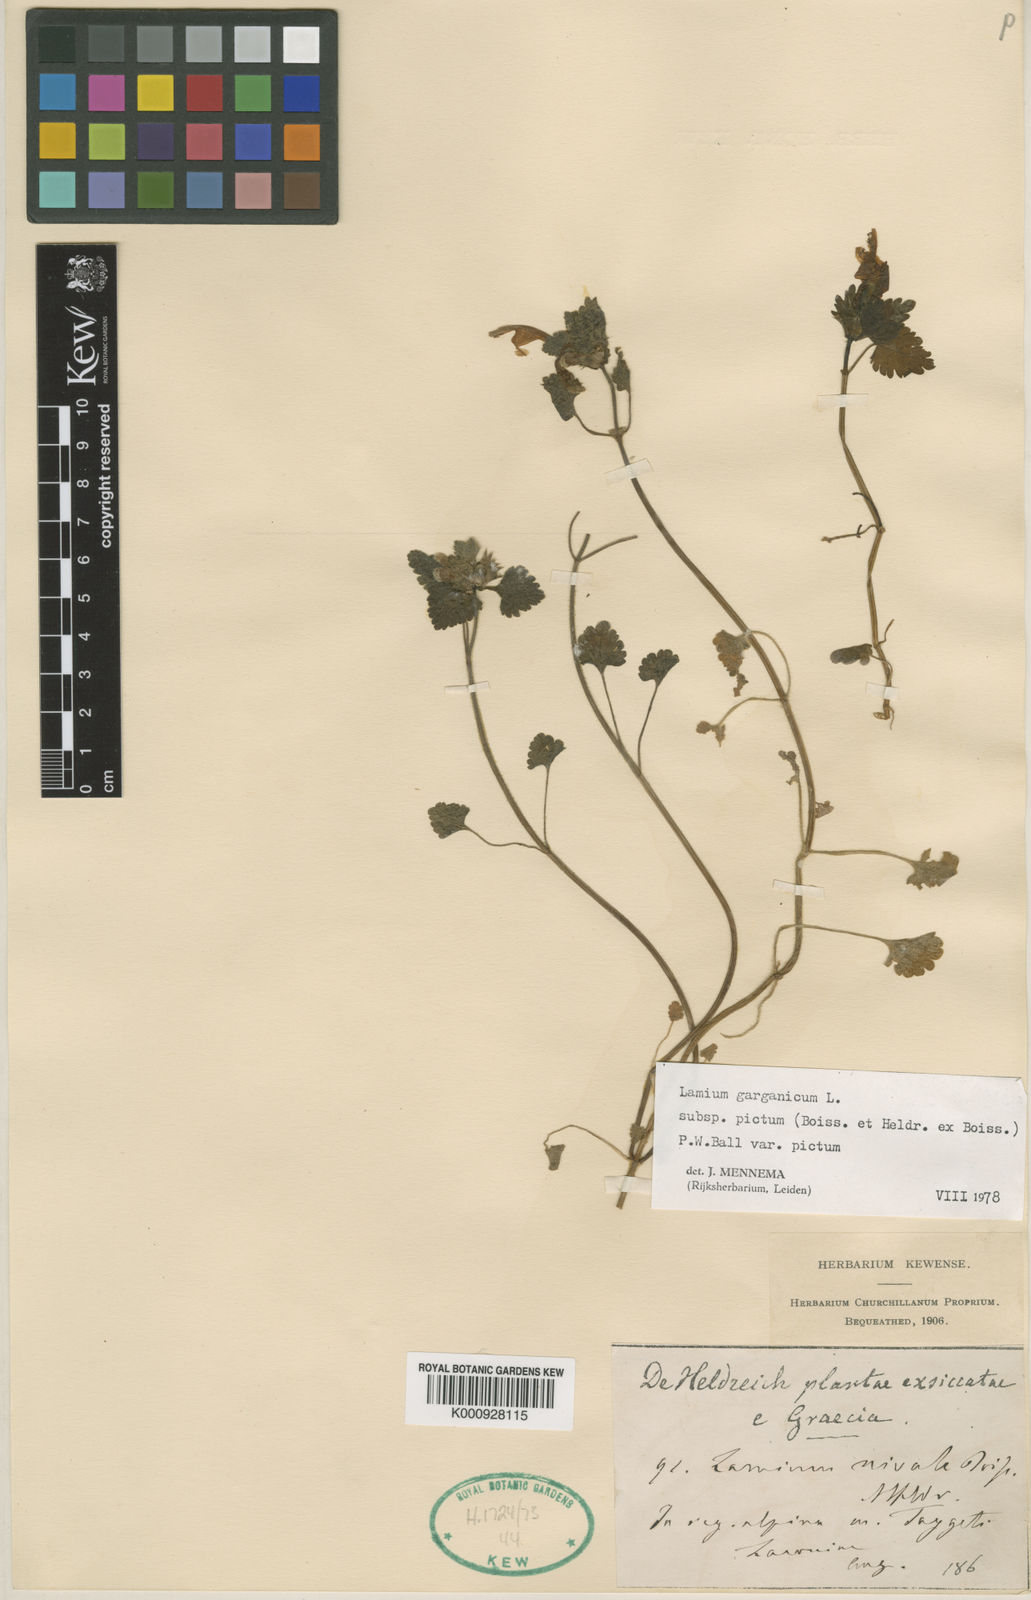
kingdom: Plantae
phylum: Tracheophyta
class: Magnoliopsida
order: Lamiales
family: Lamiaceae
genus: Lamium
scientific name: Lamium garganicum
